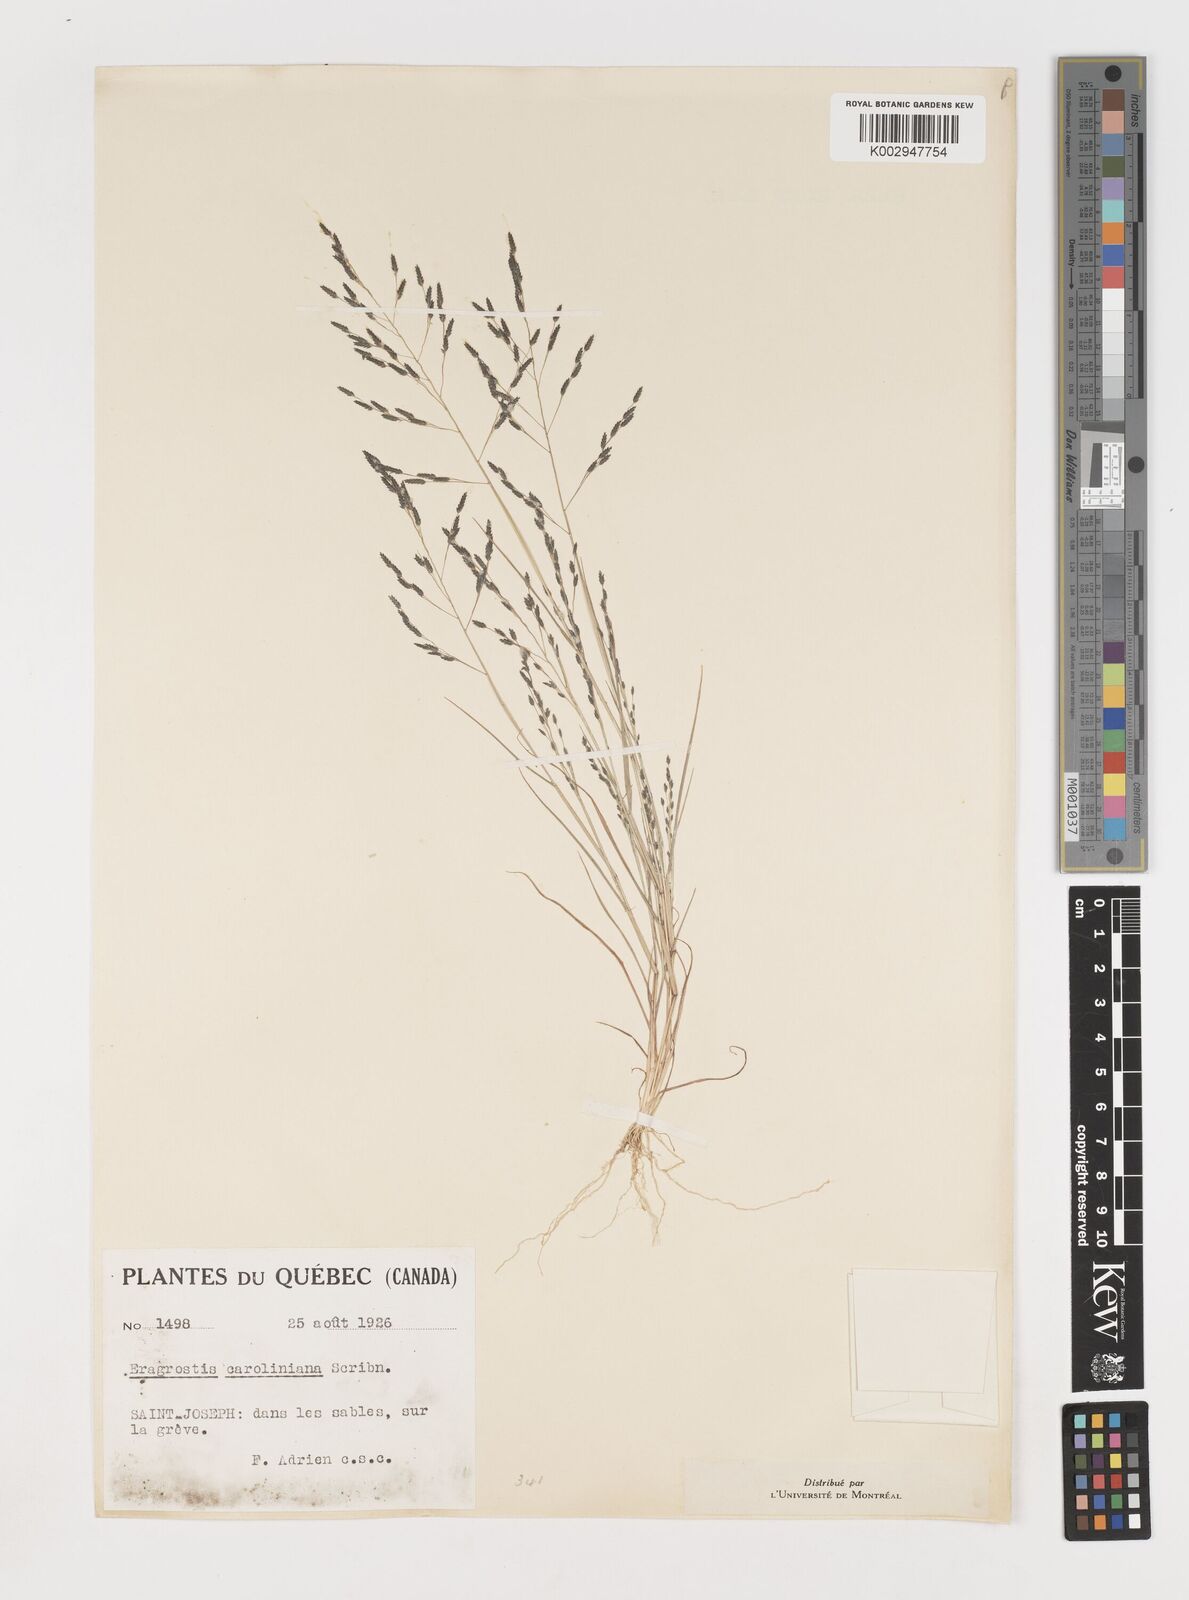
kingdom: Plantae
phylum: Tracheophyta
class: Liliopsida
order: Poales
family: Poaceae
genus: Eragrostis
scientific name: Eragrostis pectinacea
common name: Tufted lovegrass
